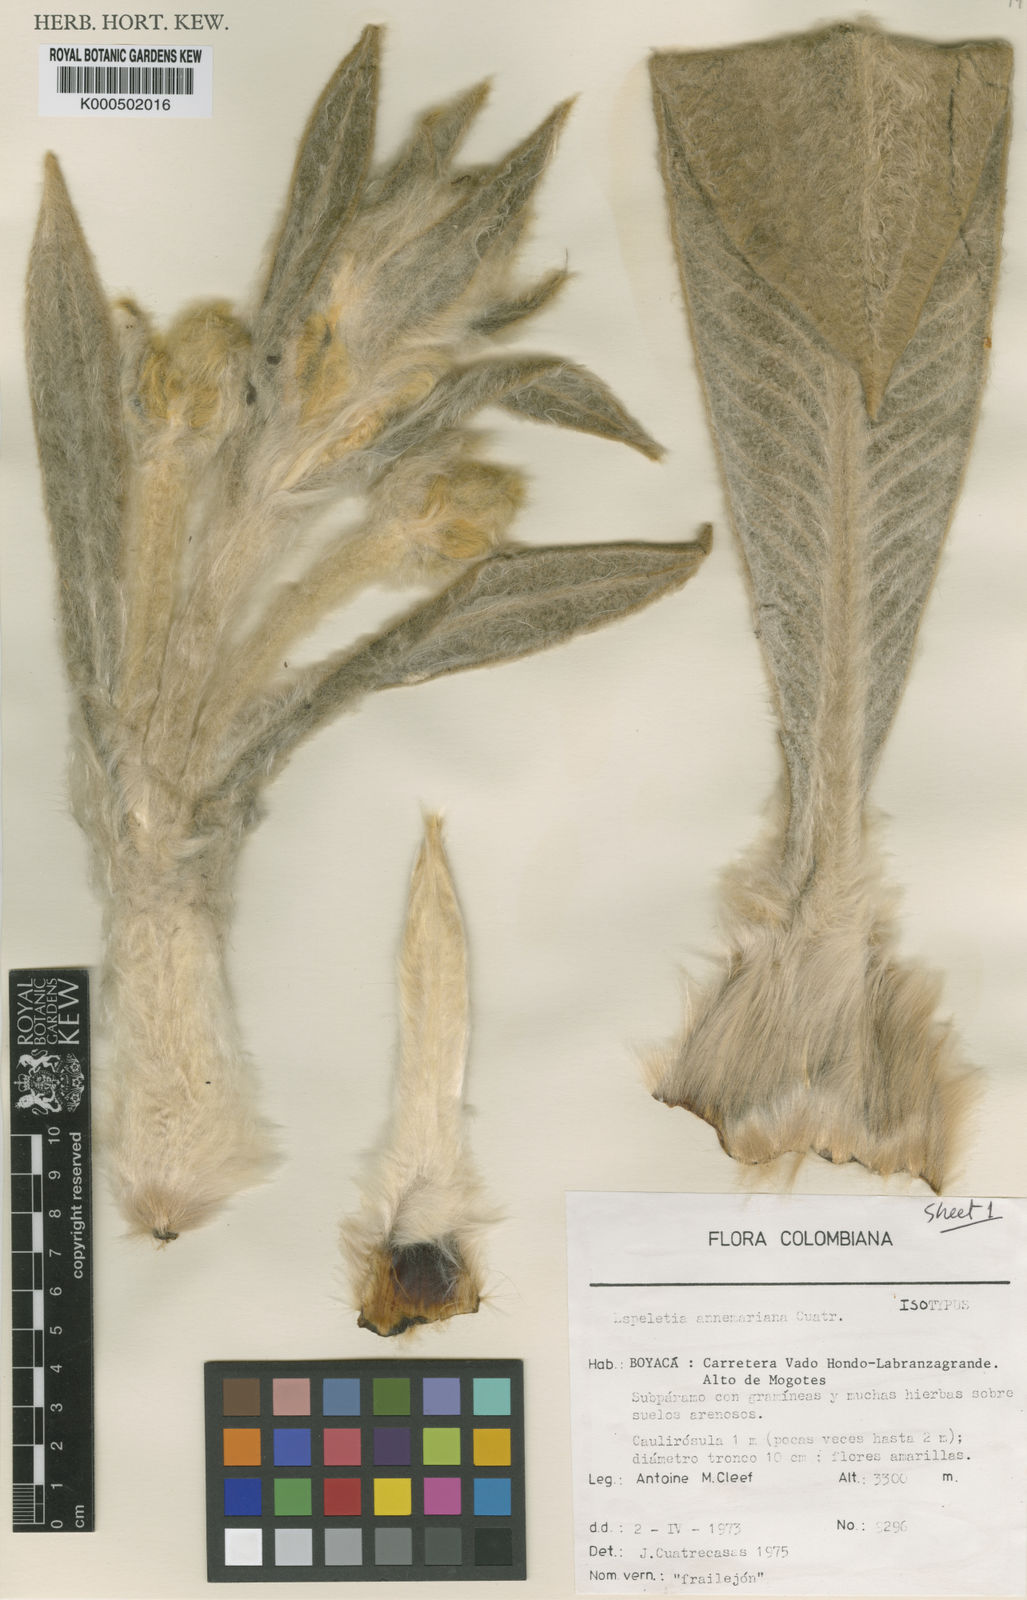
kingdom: Plantae
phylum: Tracheophyta
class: Magnoliopsida
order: Asterales
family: Asteraceae
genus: Espeletia
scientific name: Espeletia annemariana
